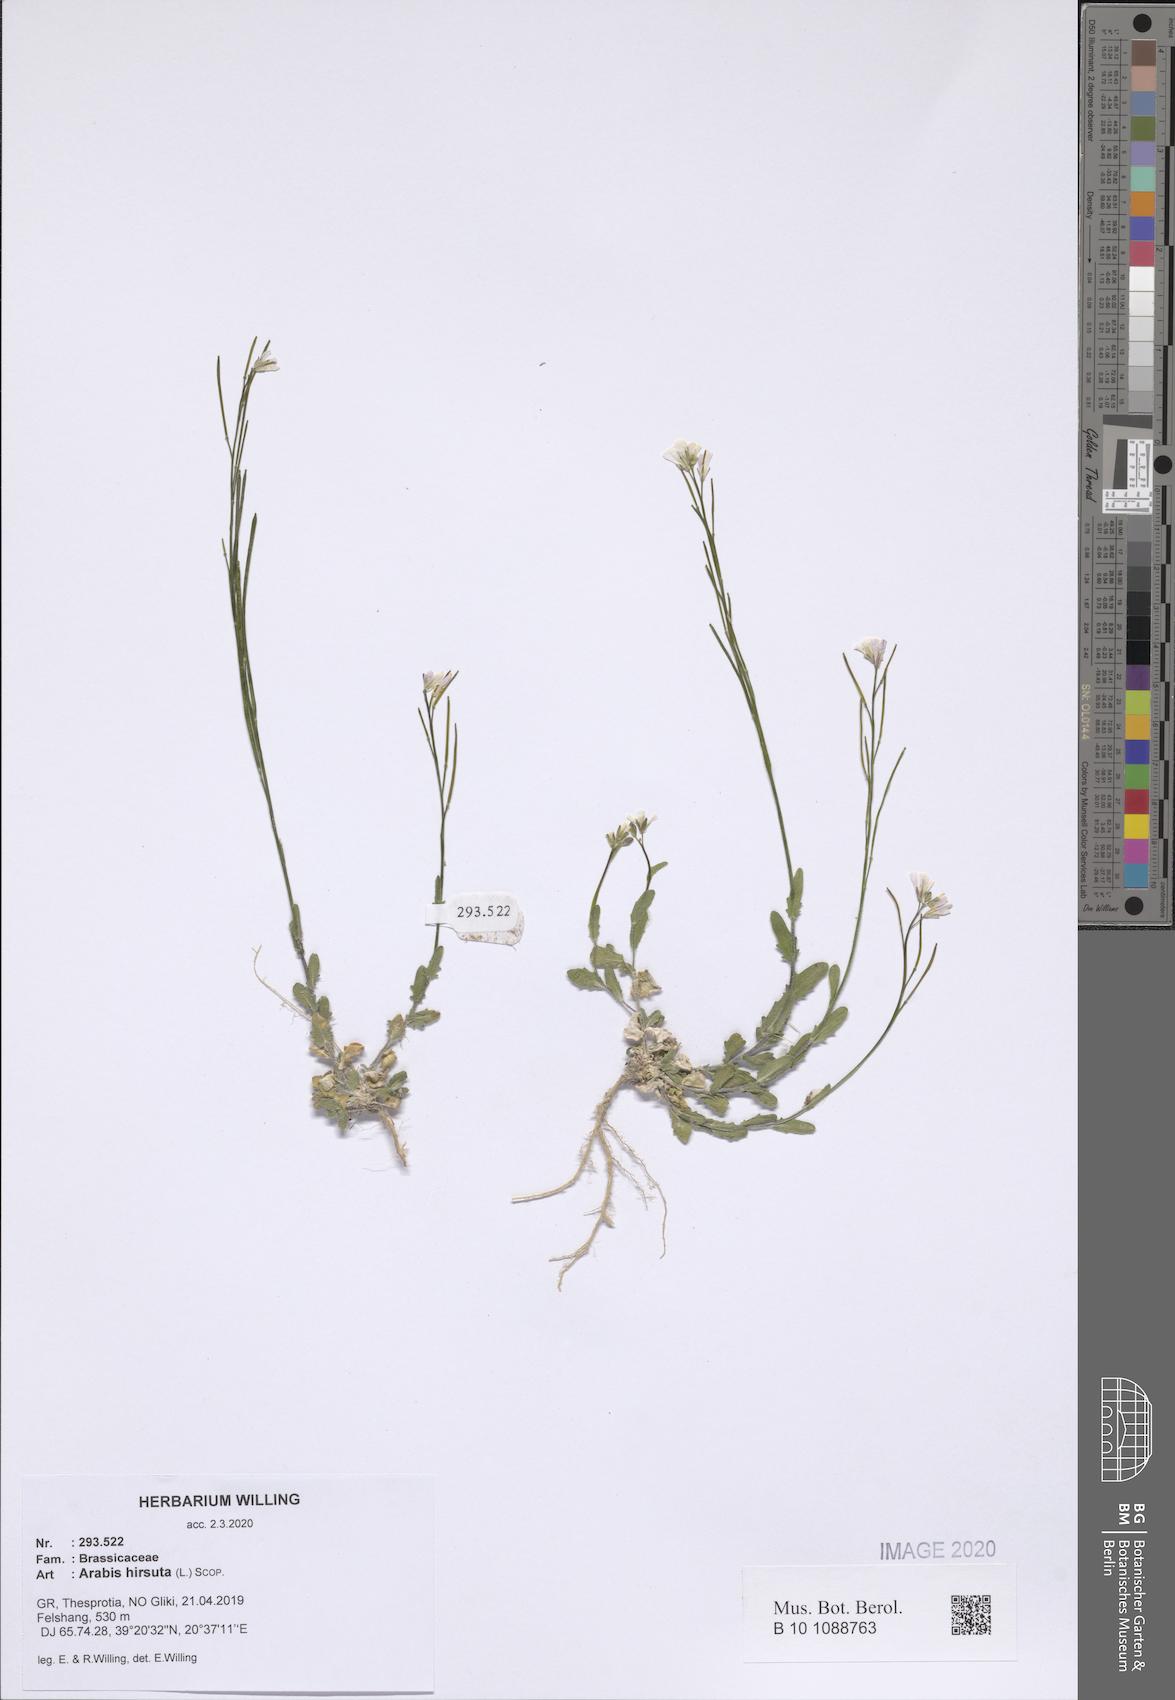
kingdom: Plantae
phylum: Tracheophyta
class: Magnoliopsida
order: Brassicales
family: Brassicaceae
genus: Arabis
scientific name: Arabis hirsuta
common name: Hairy rock-cress
